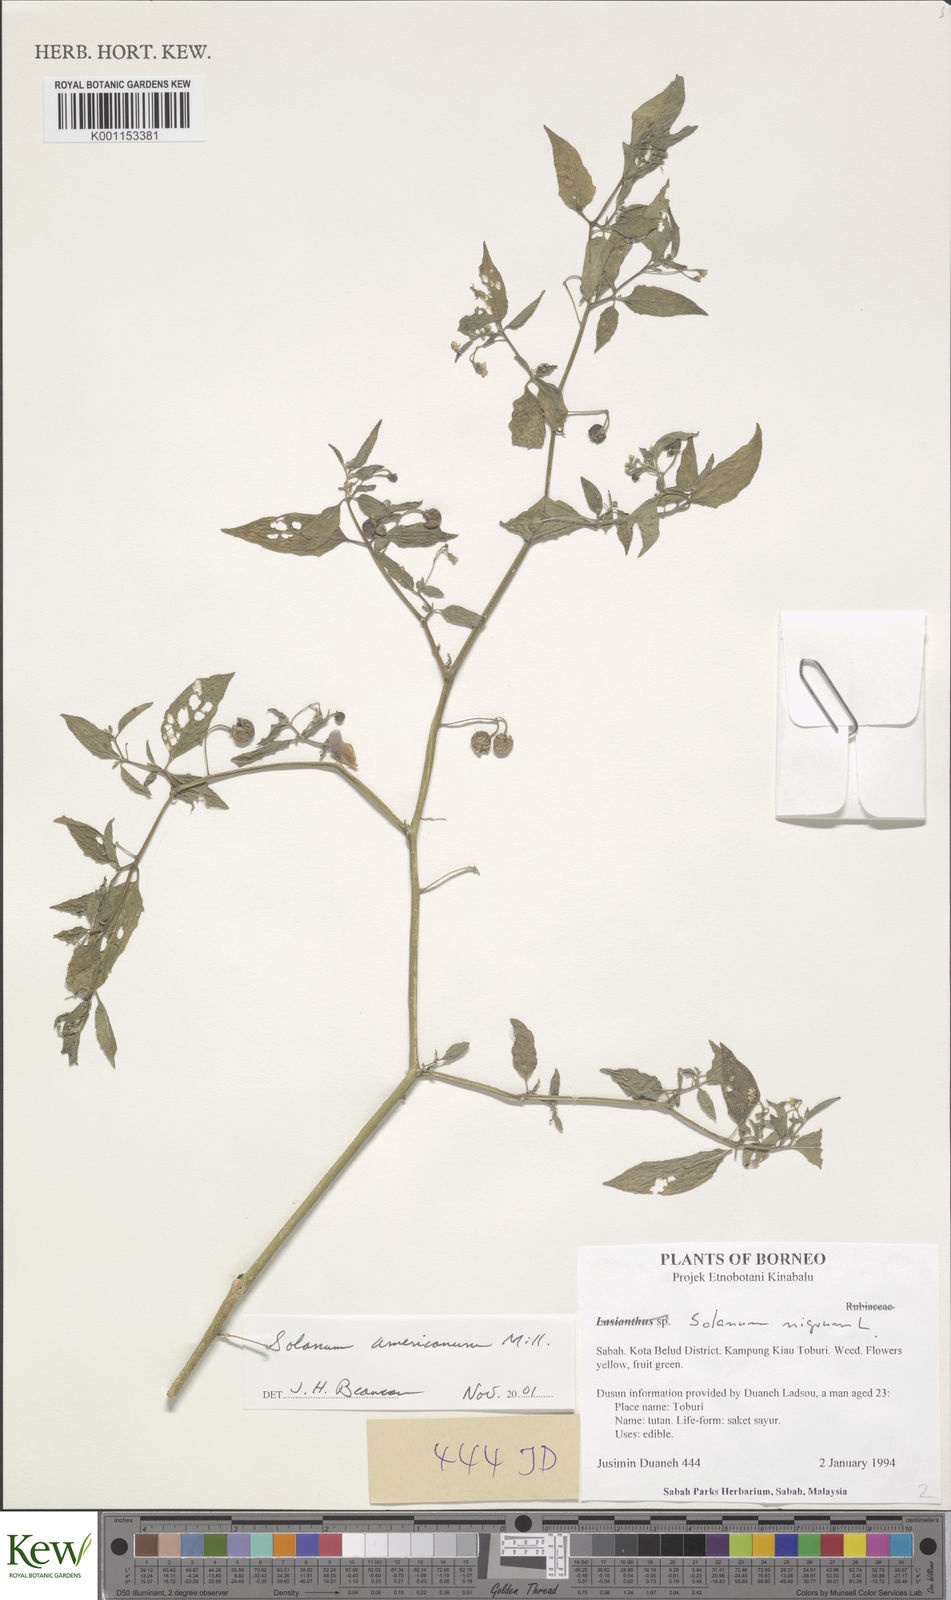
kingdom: Plantae
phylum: Tracheophyta
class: Magnoliopsida
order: Solanales
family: Solanaceae
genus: Solanum
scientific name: Solanum americanum
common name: American black nightshade
